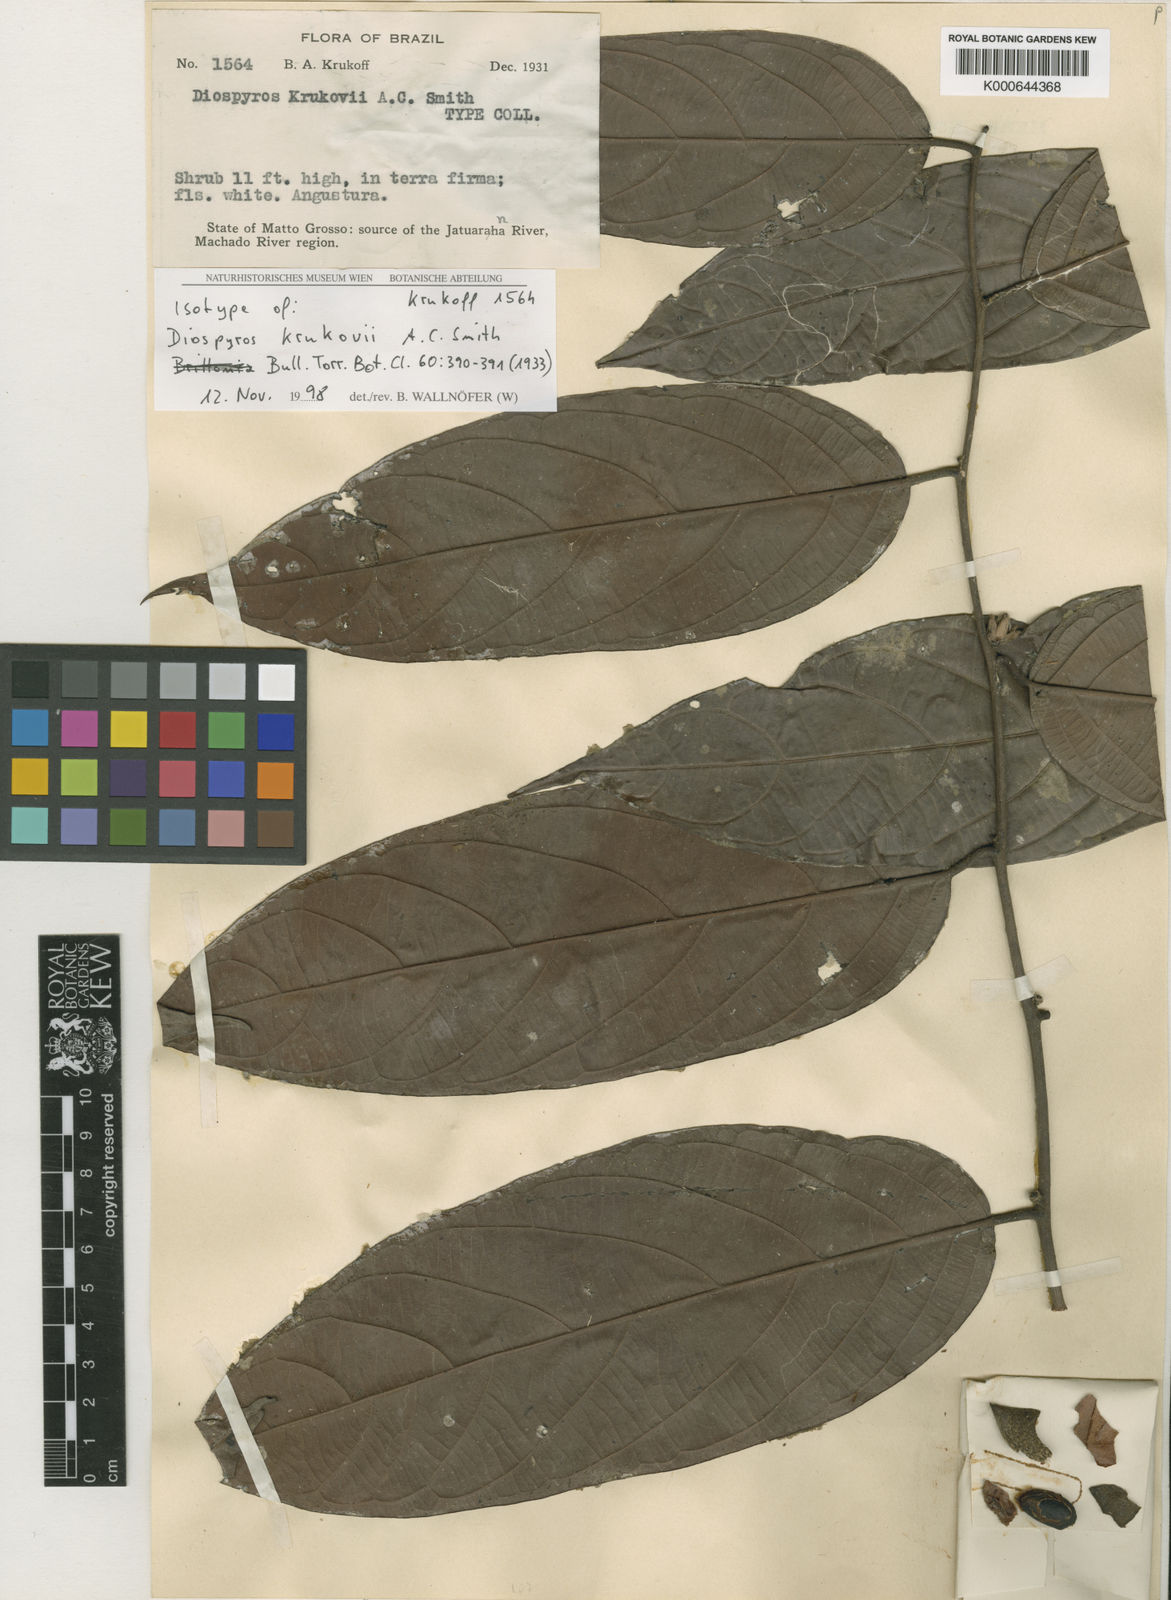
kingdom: Plantae
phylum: Tracheophyta
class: Magnoliopsida
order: Ericales
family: Ebenaceae
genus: Diospyros
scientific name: Diospyros krukovii
